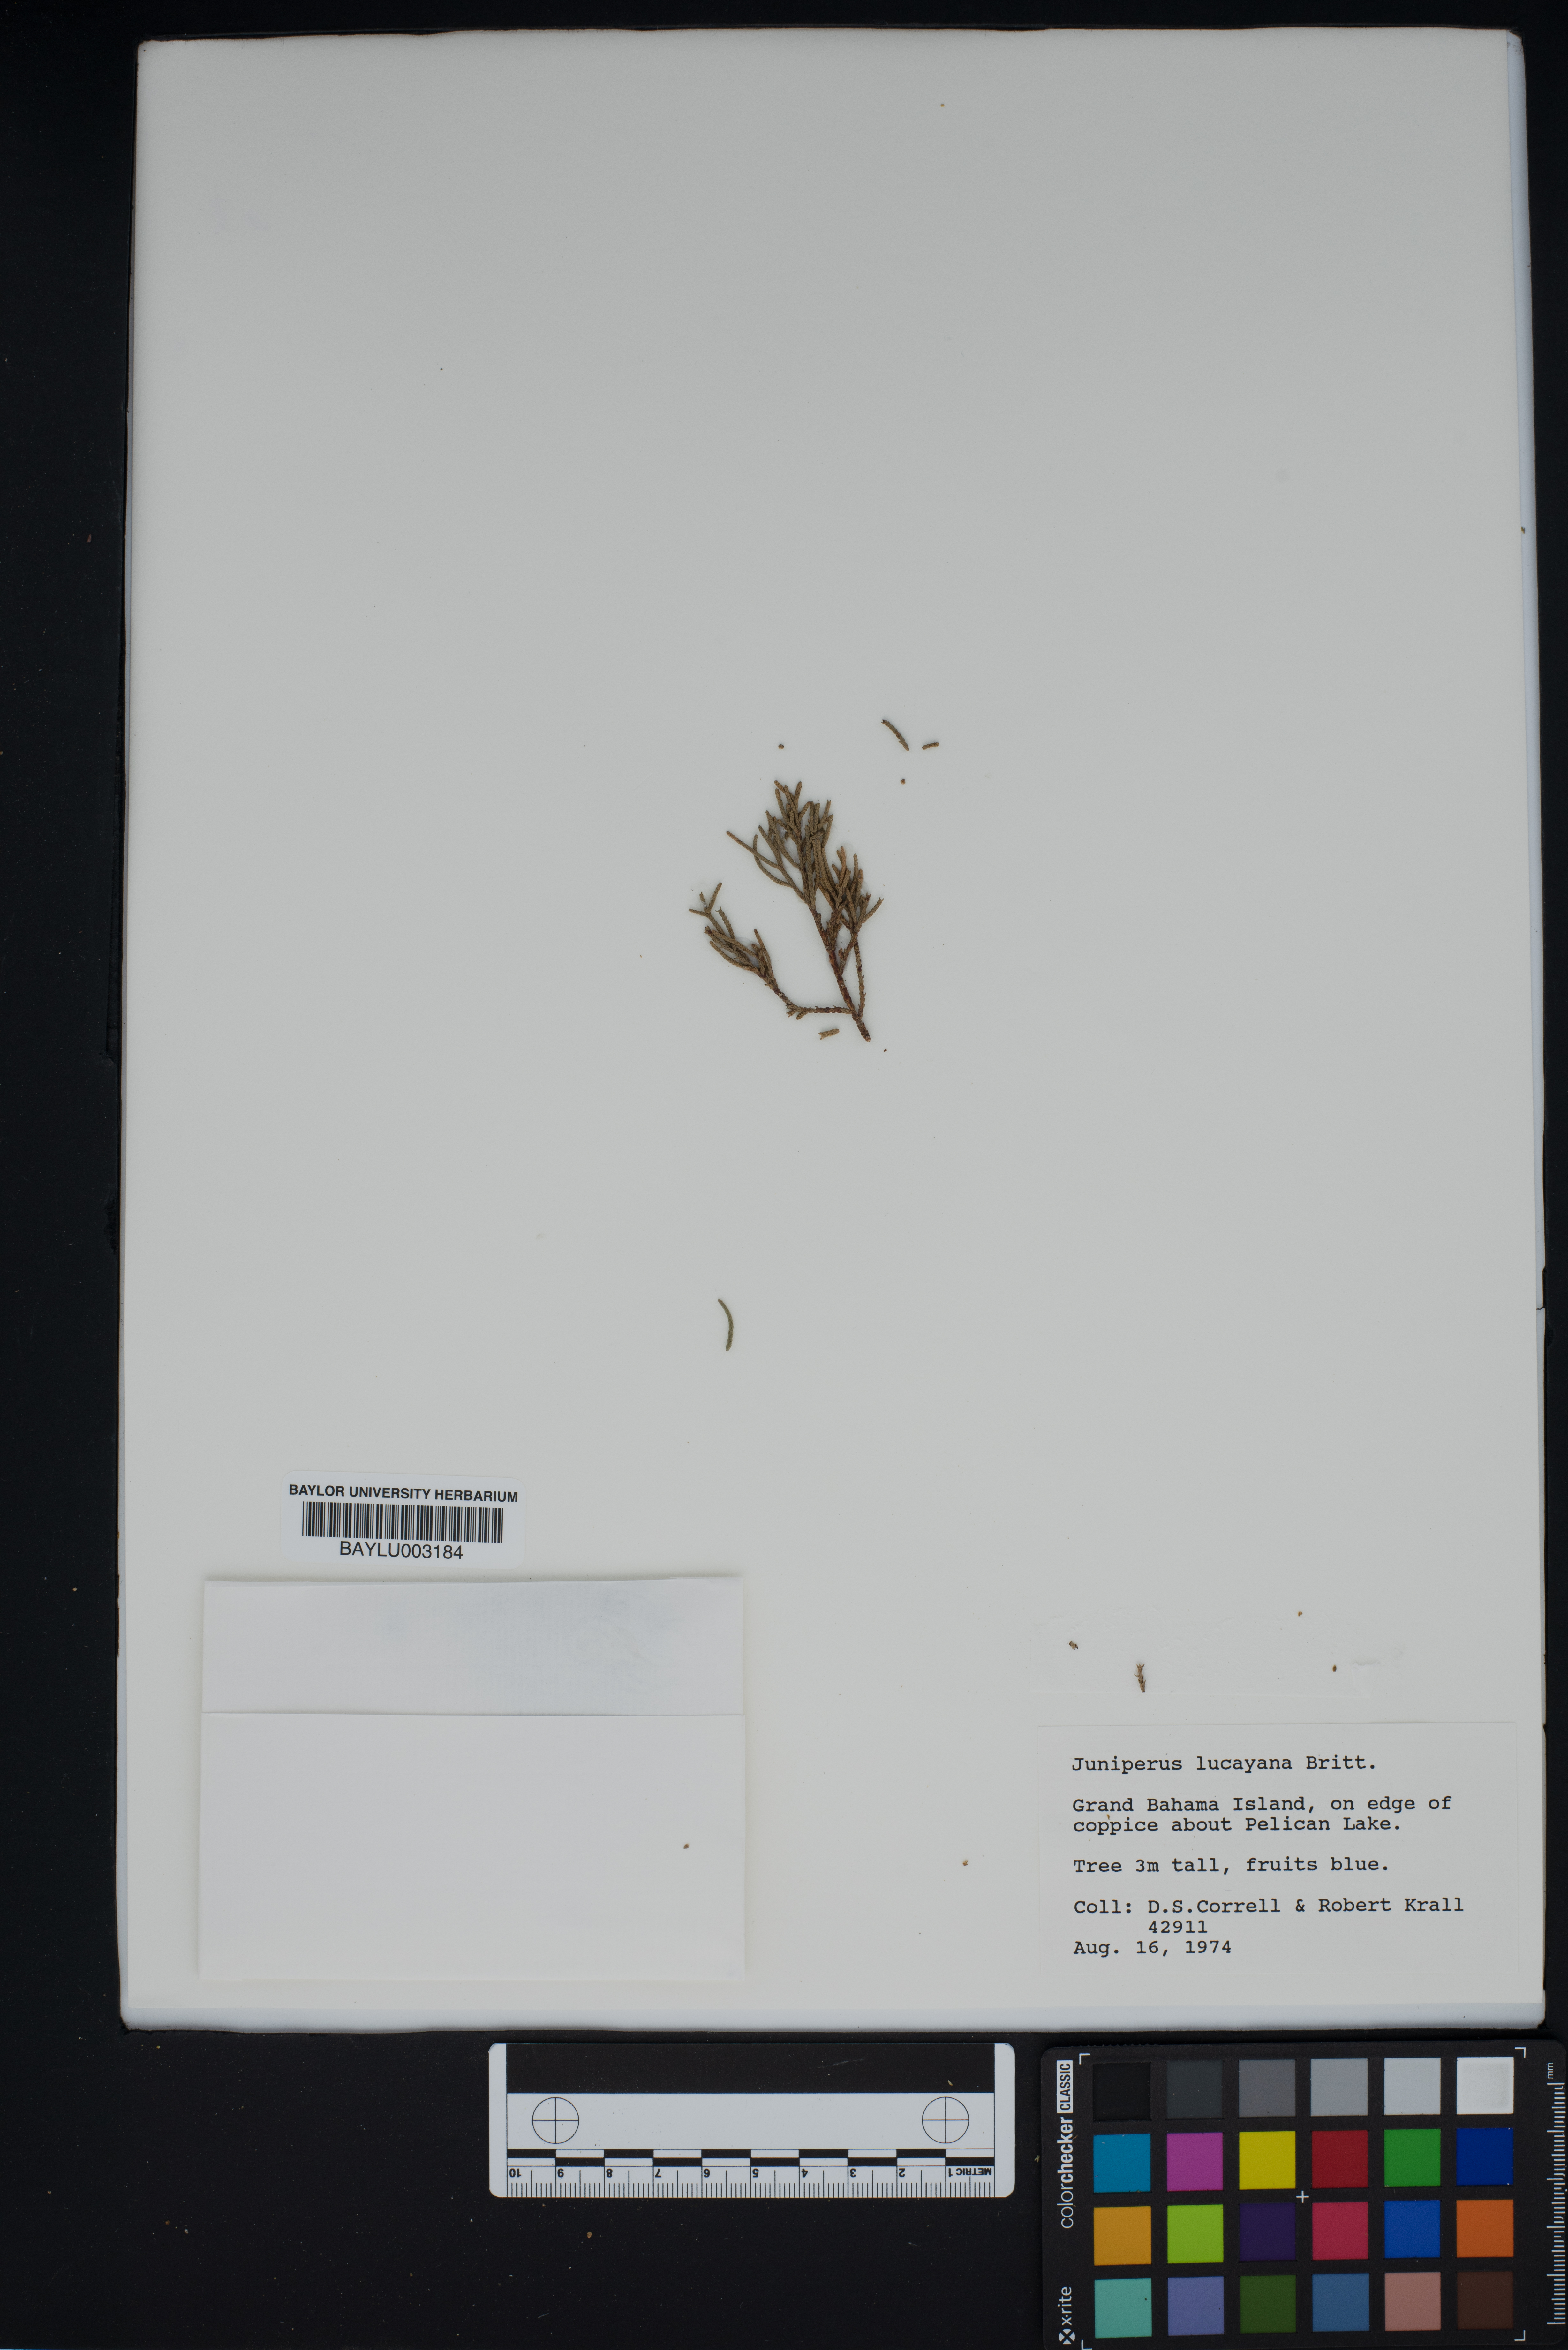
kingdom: Plantae
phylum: Tracheophyta
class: Pinopsida
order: Pinales
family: Cupressaceae
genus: Juniperus
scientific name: Juniperus barbadensis
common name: West indies juniper
